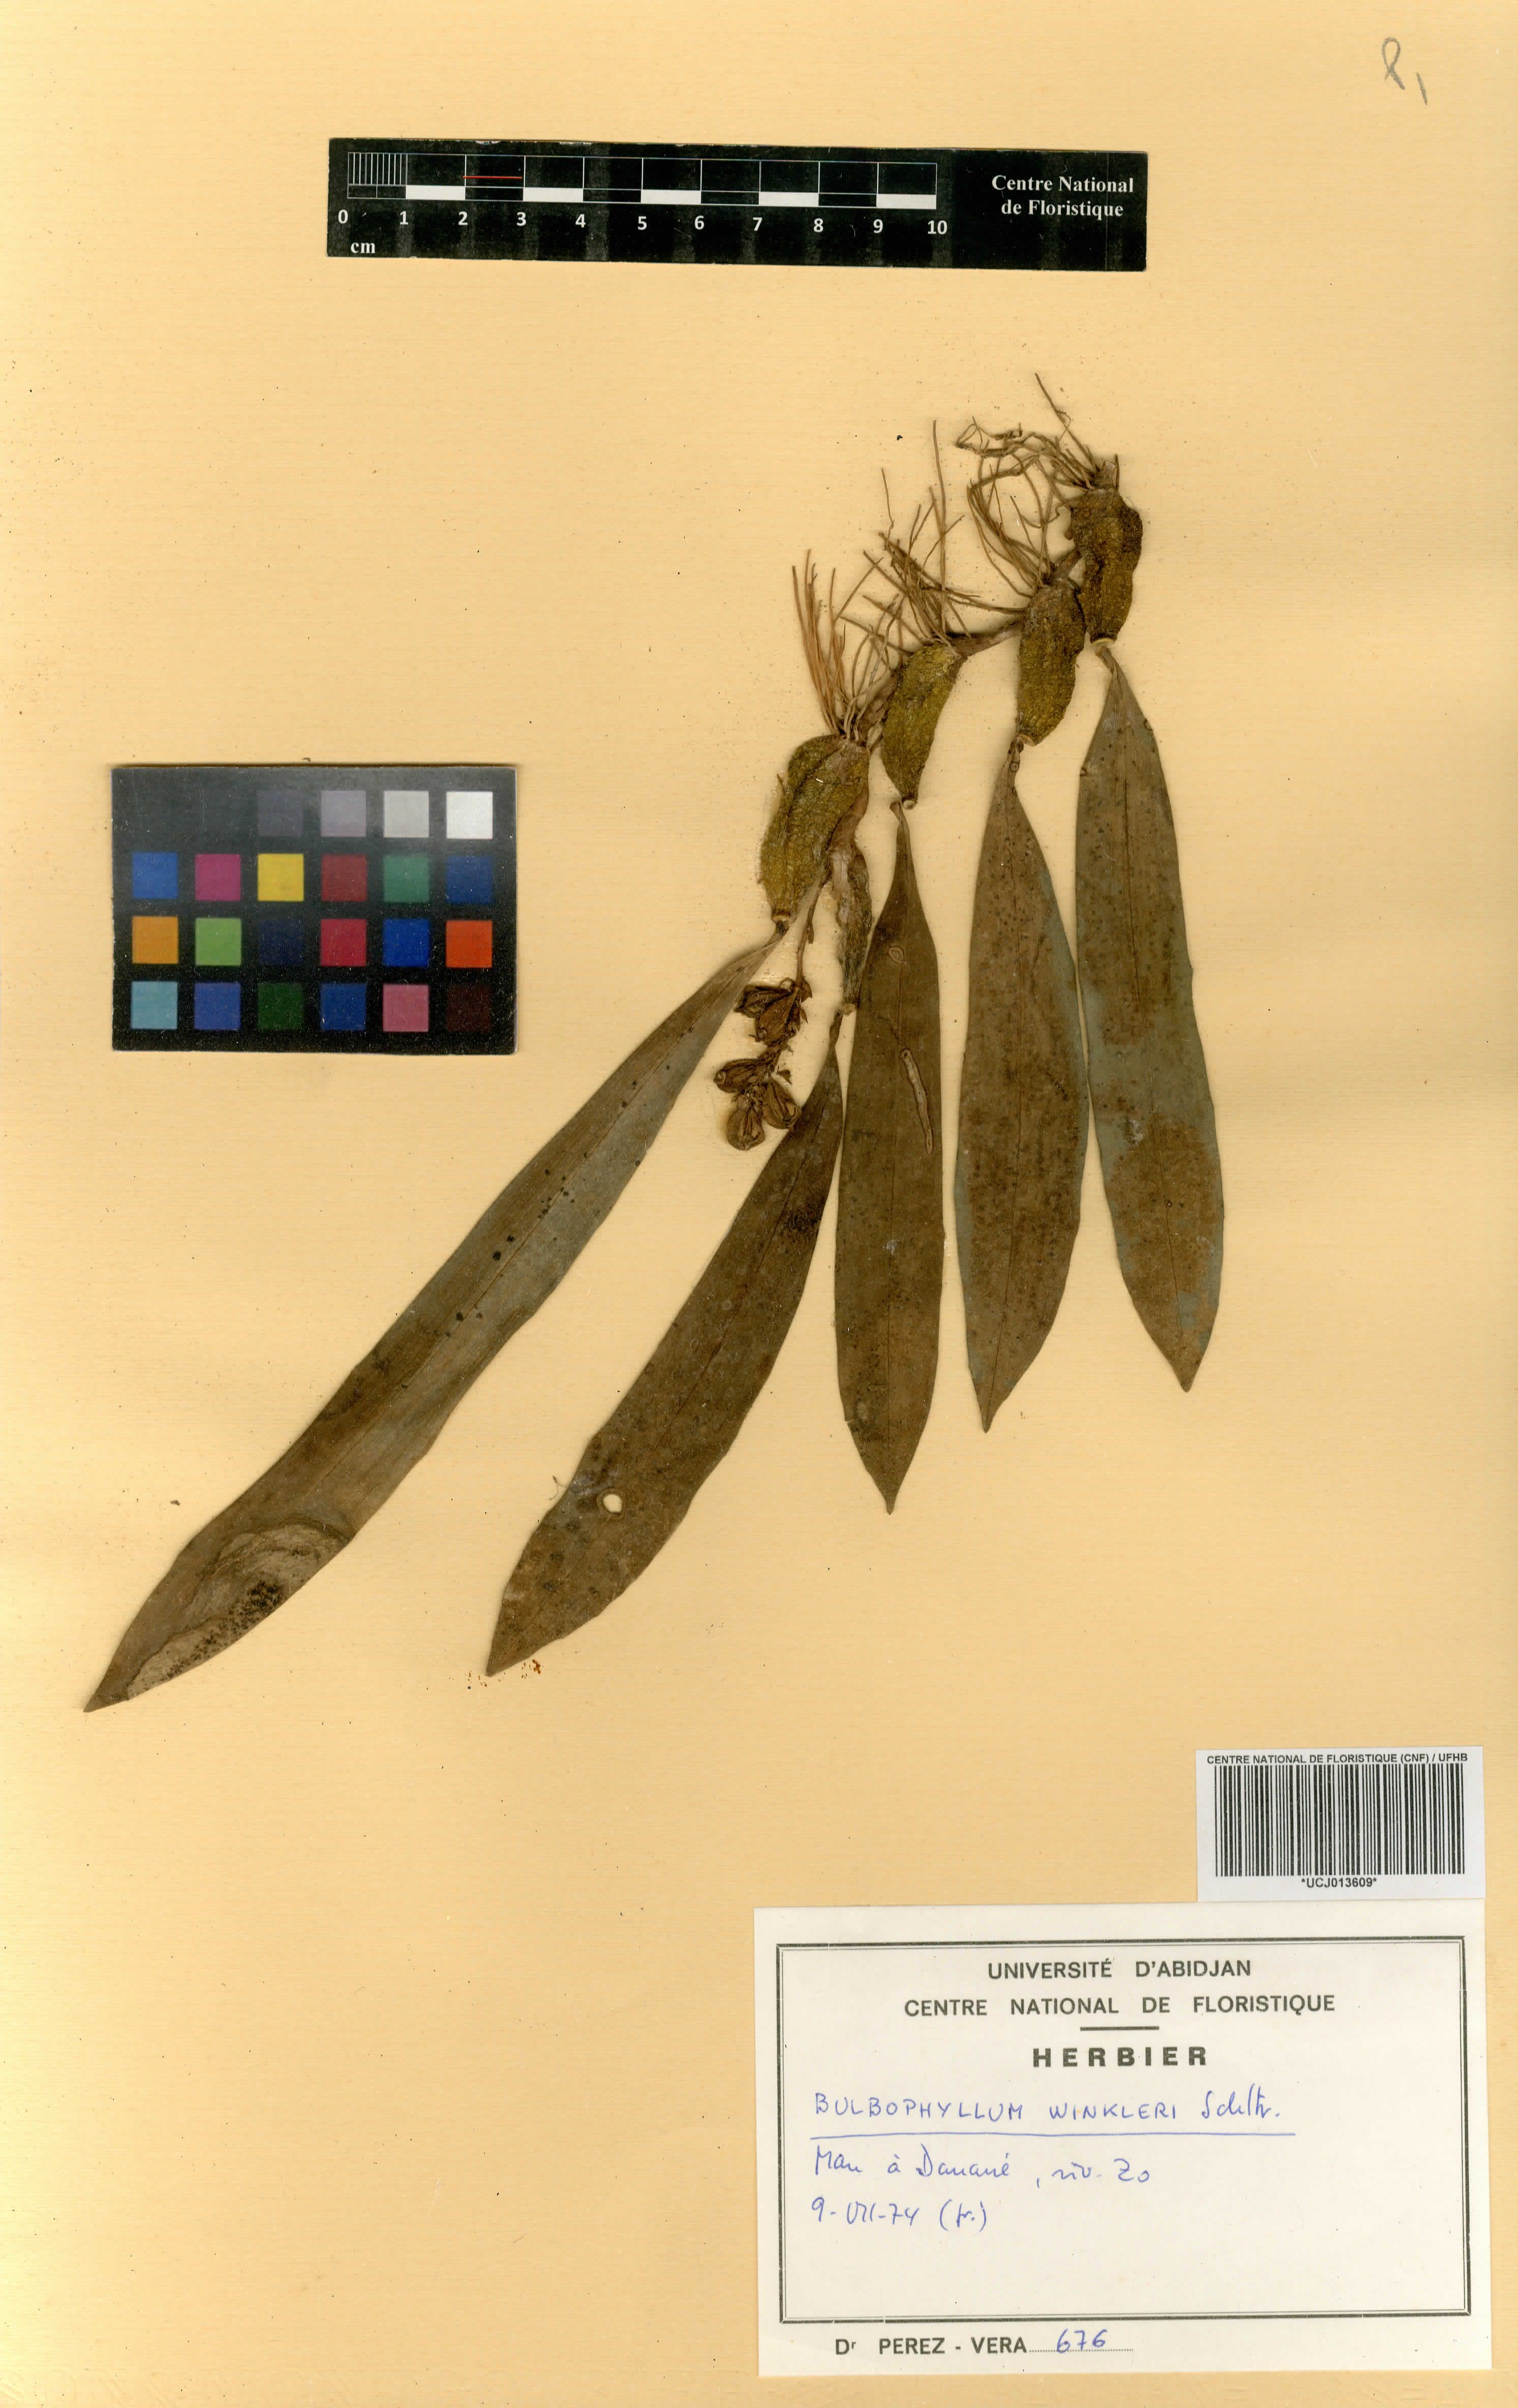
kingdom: Plantae
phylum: Tracheophyta
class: Liliopsida
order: Asparagales
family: Orchidaceae
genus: Bulbophyllum
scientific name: Bulbophyllum
